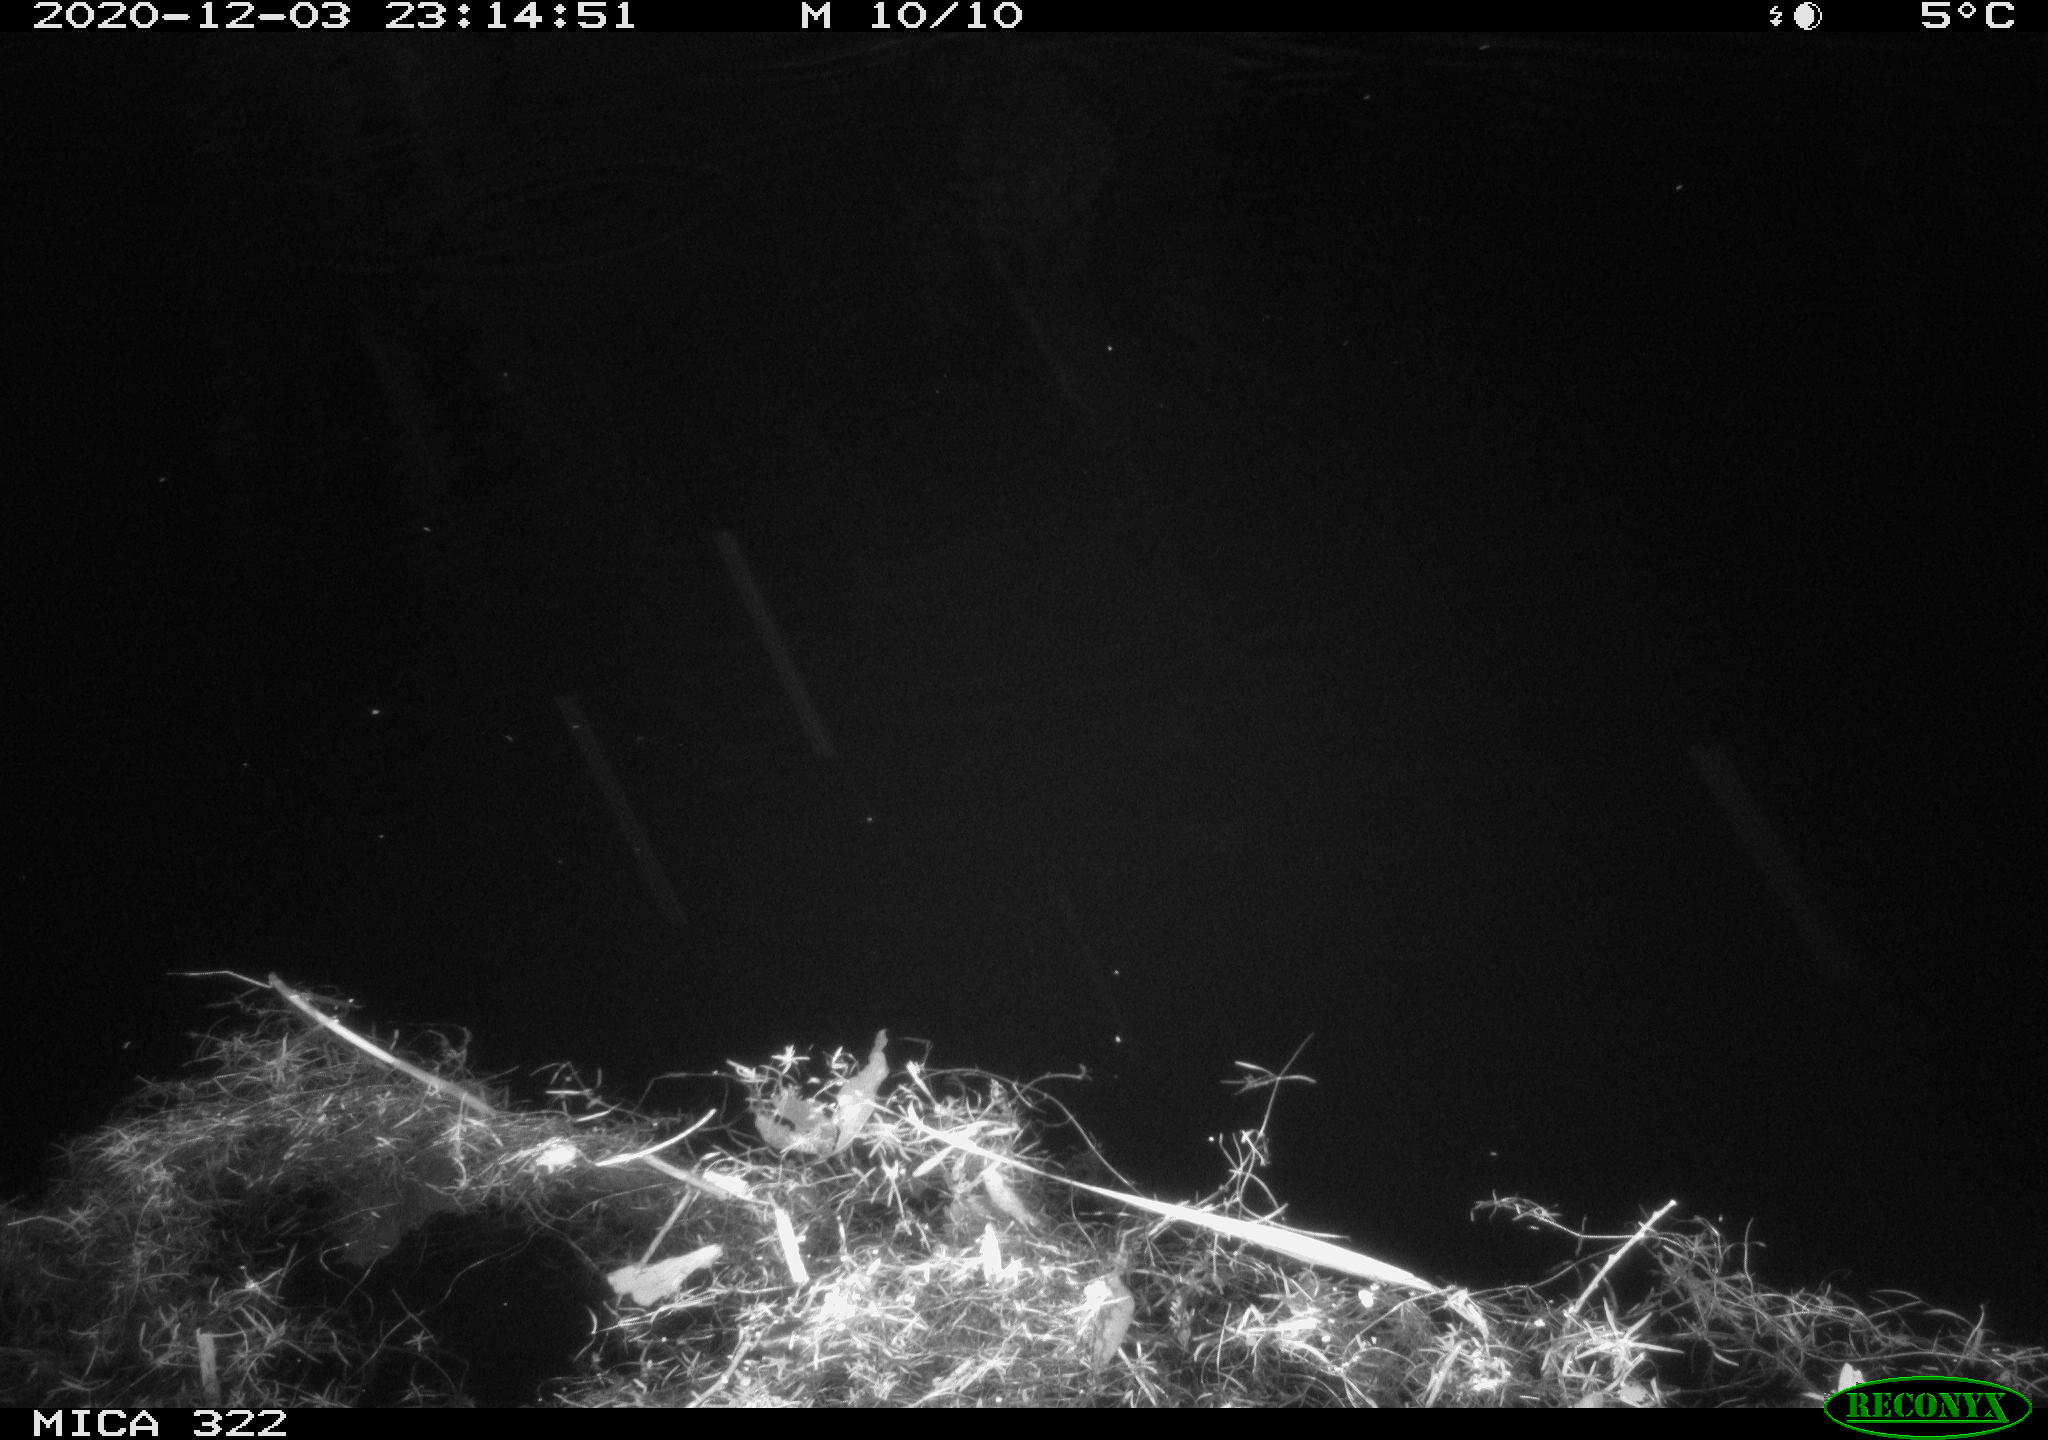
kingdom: Animalia
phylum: Chordata
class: Mammalia
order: Rodentia
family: Muridae
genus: Rattus
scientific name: Rattus norvegicus
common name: Brown rat
